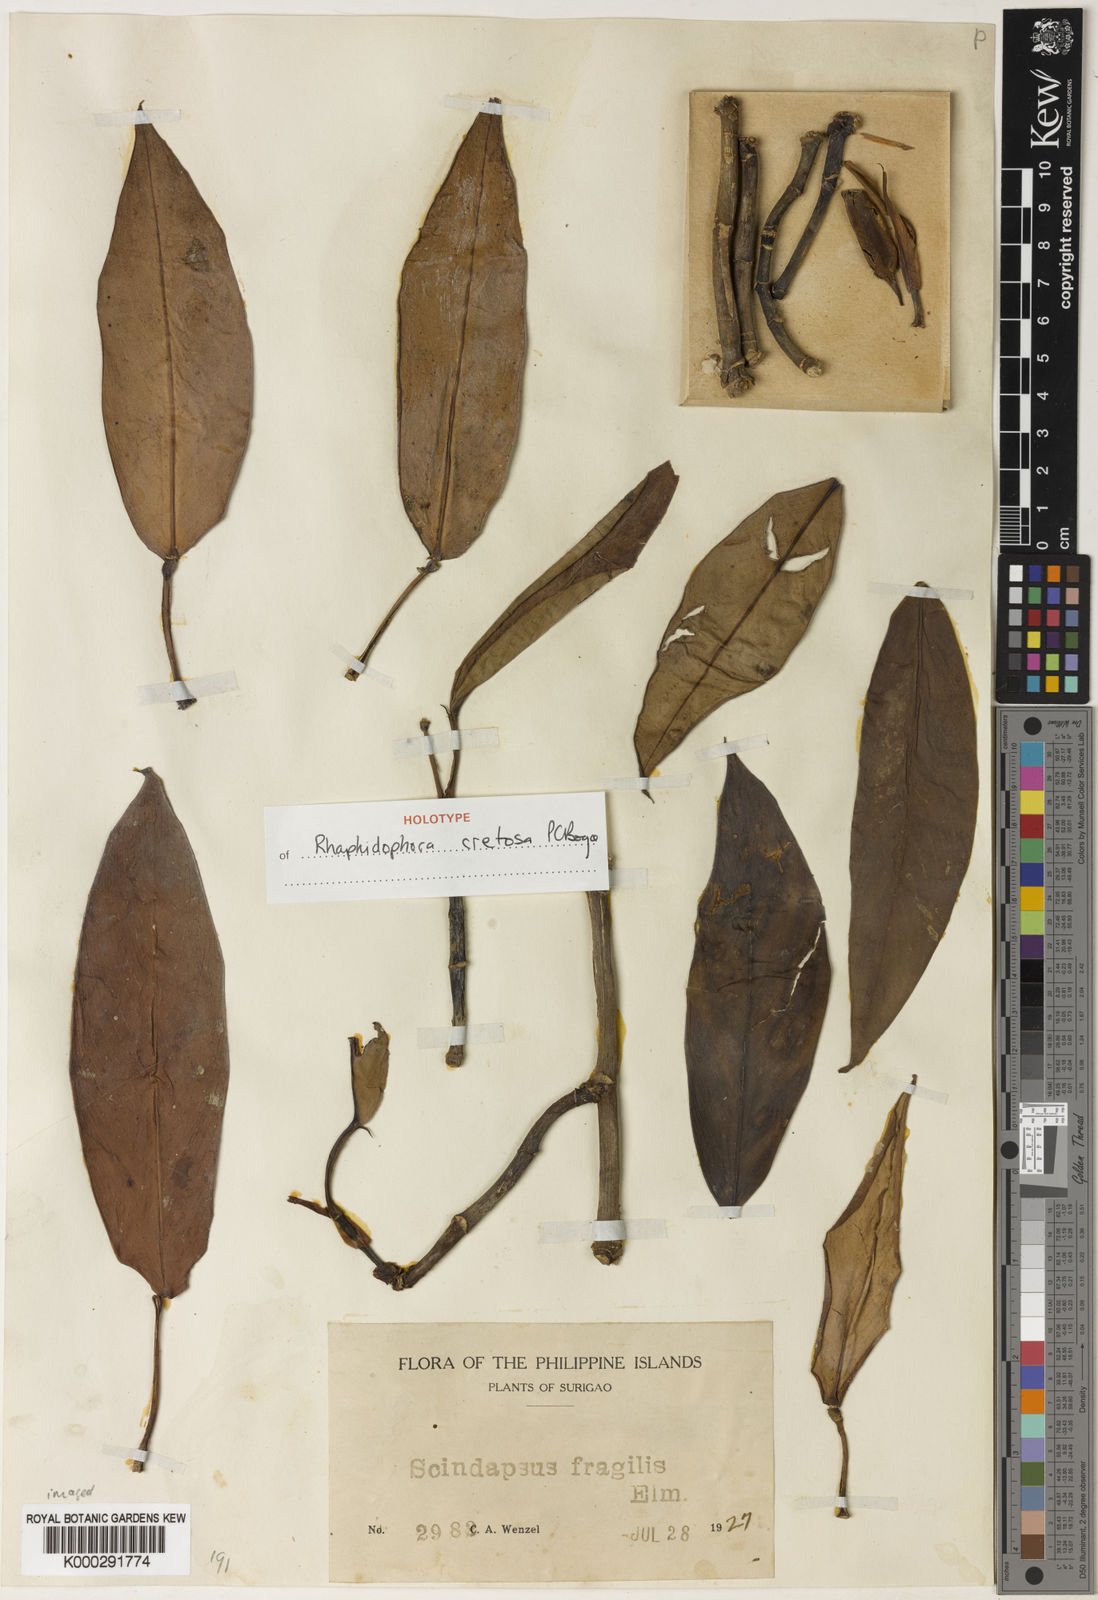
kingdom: Plantae
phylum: Tracheophyta
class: Liliopsida
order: Alismatales
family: Araceae
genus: Rhaphidophora
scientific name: Rhaphidophora cretosa
